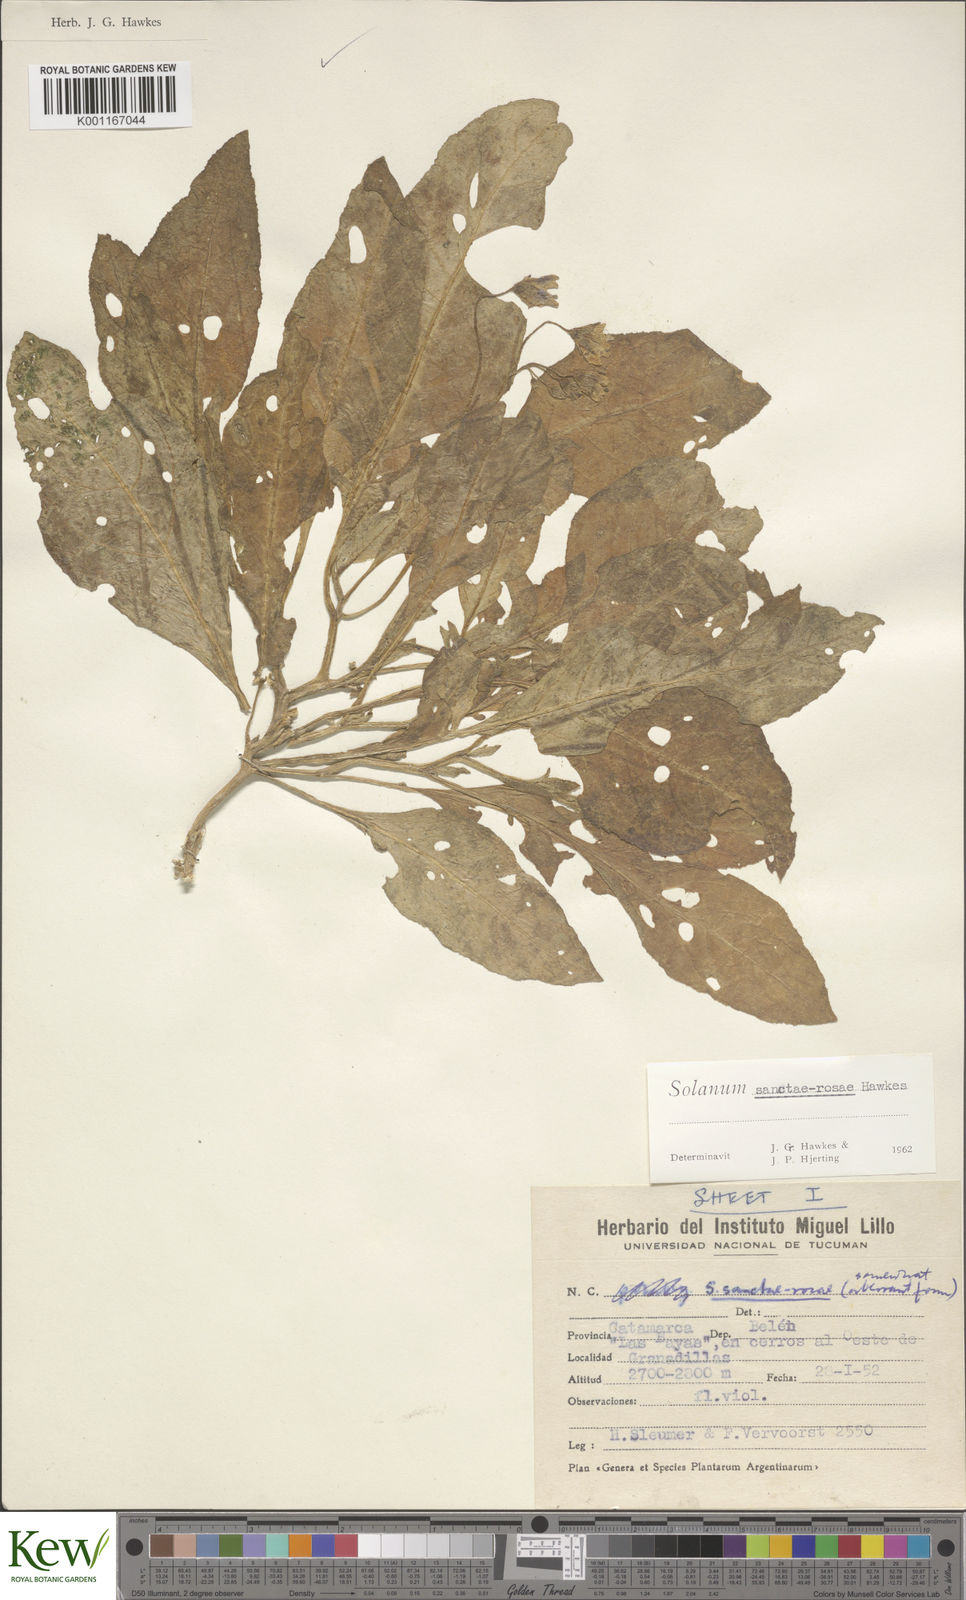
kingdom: Plantae
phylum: Tracheophyta
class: Magnoliopsida
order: Solanales
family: Solanaceae
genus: Solanum
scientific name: Solanum boliviense
